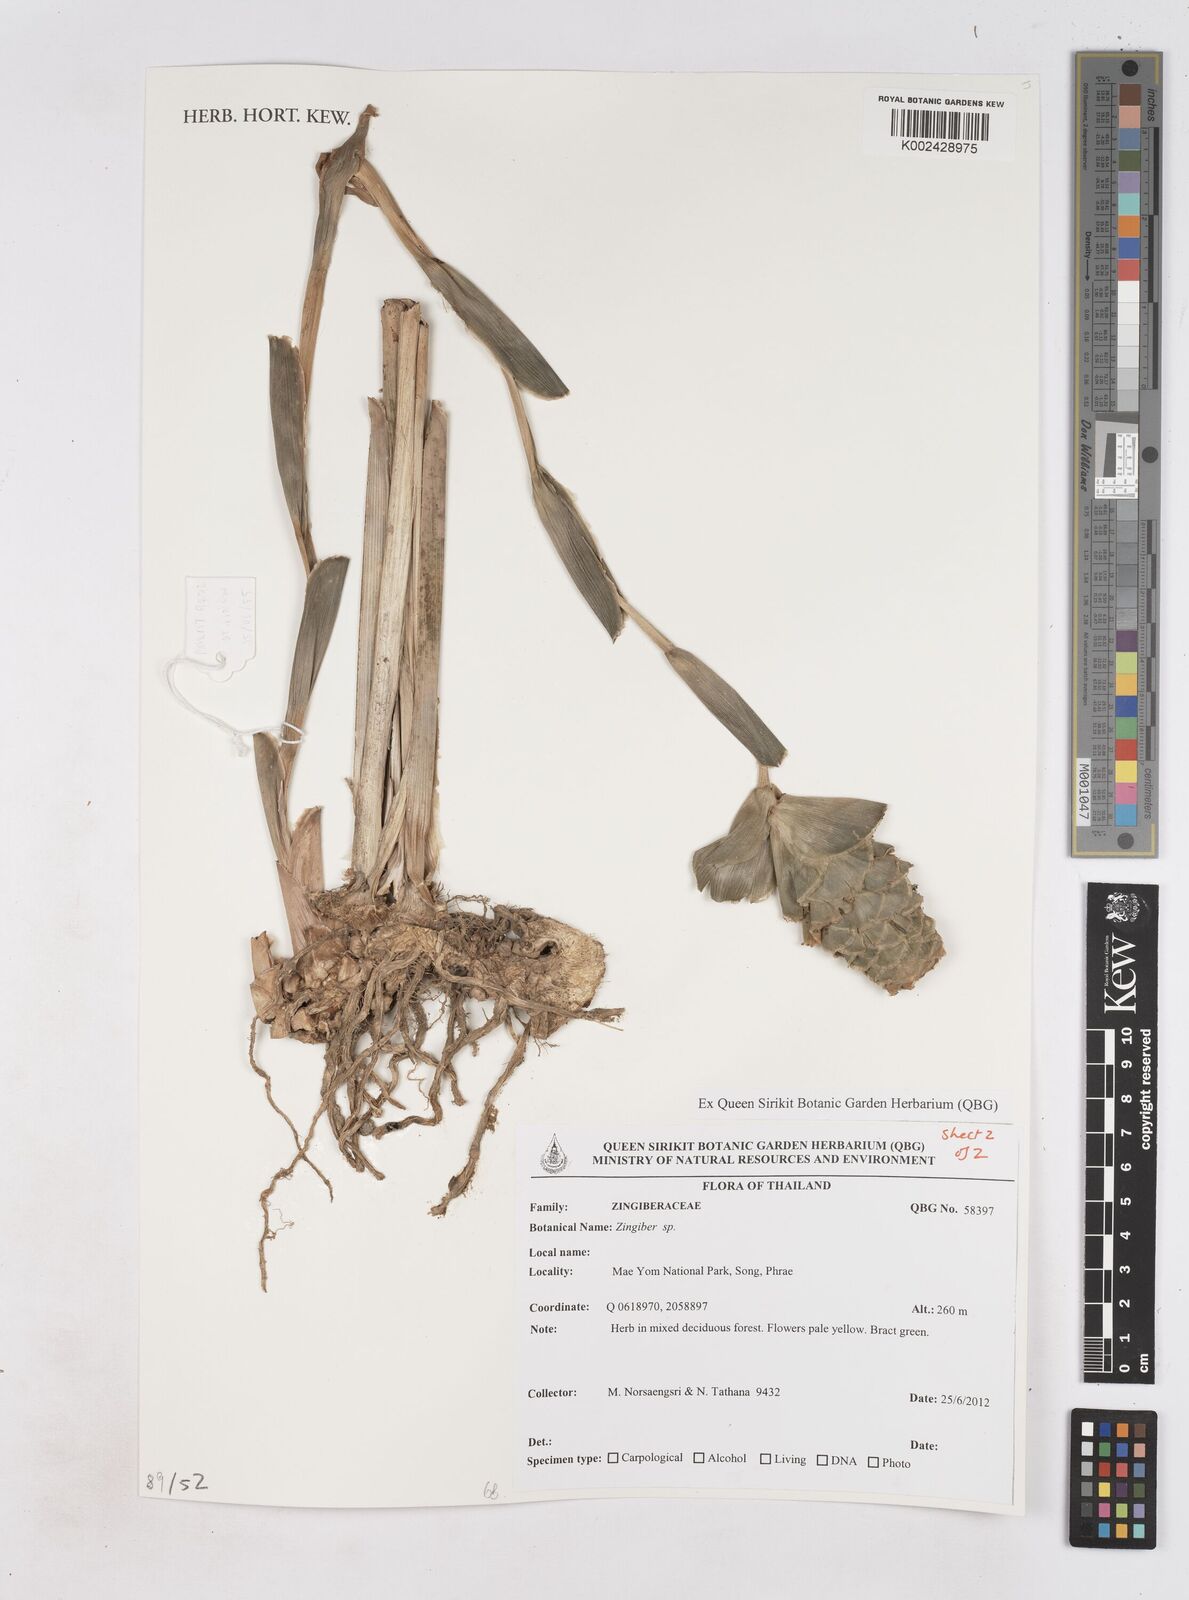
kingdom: Plantae
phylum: Tracheophyta
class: Liliopsida
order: Zingiberales
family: Zingiberaceae
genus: Zingiber
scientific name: Zingiber
